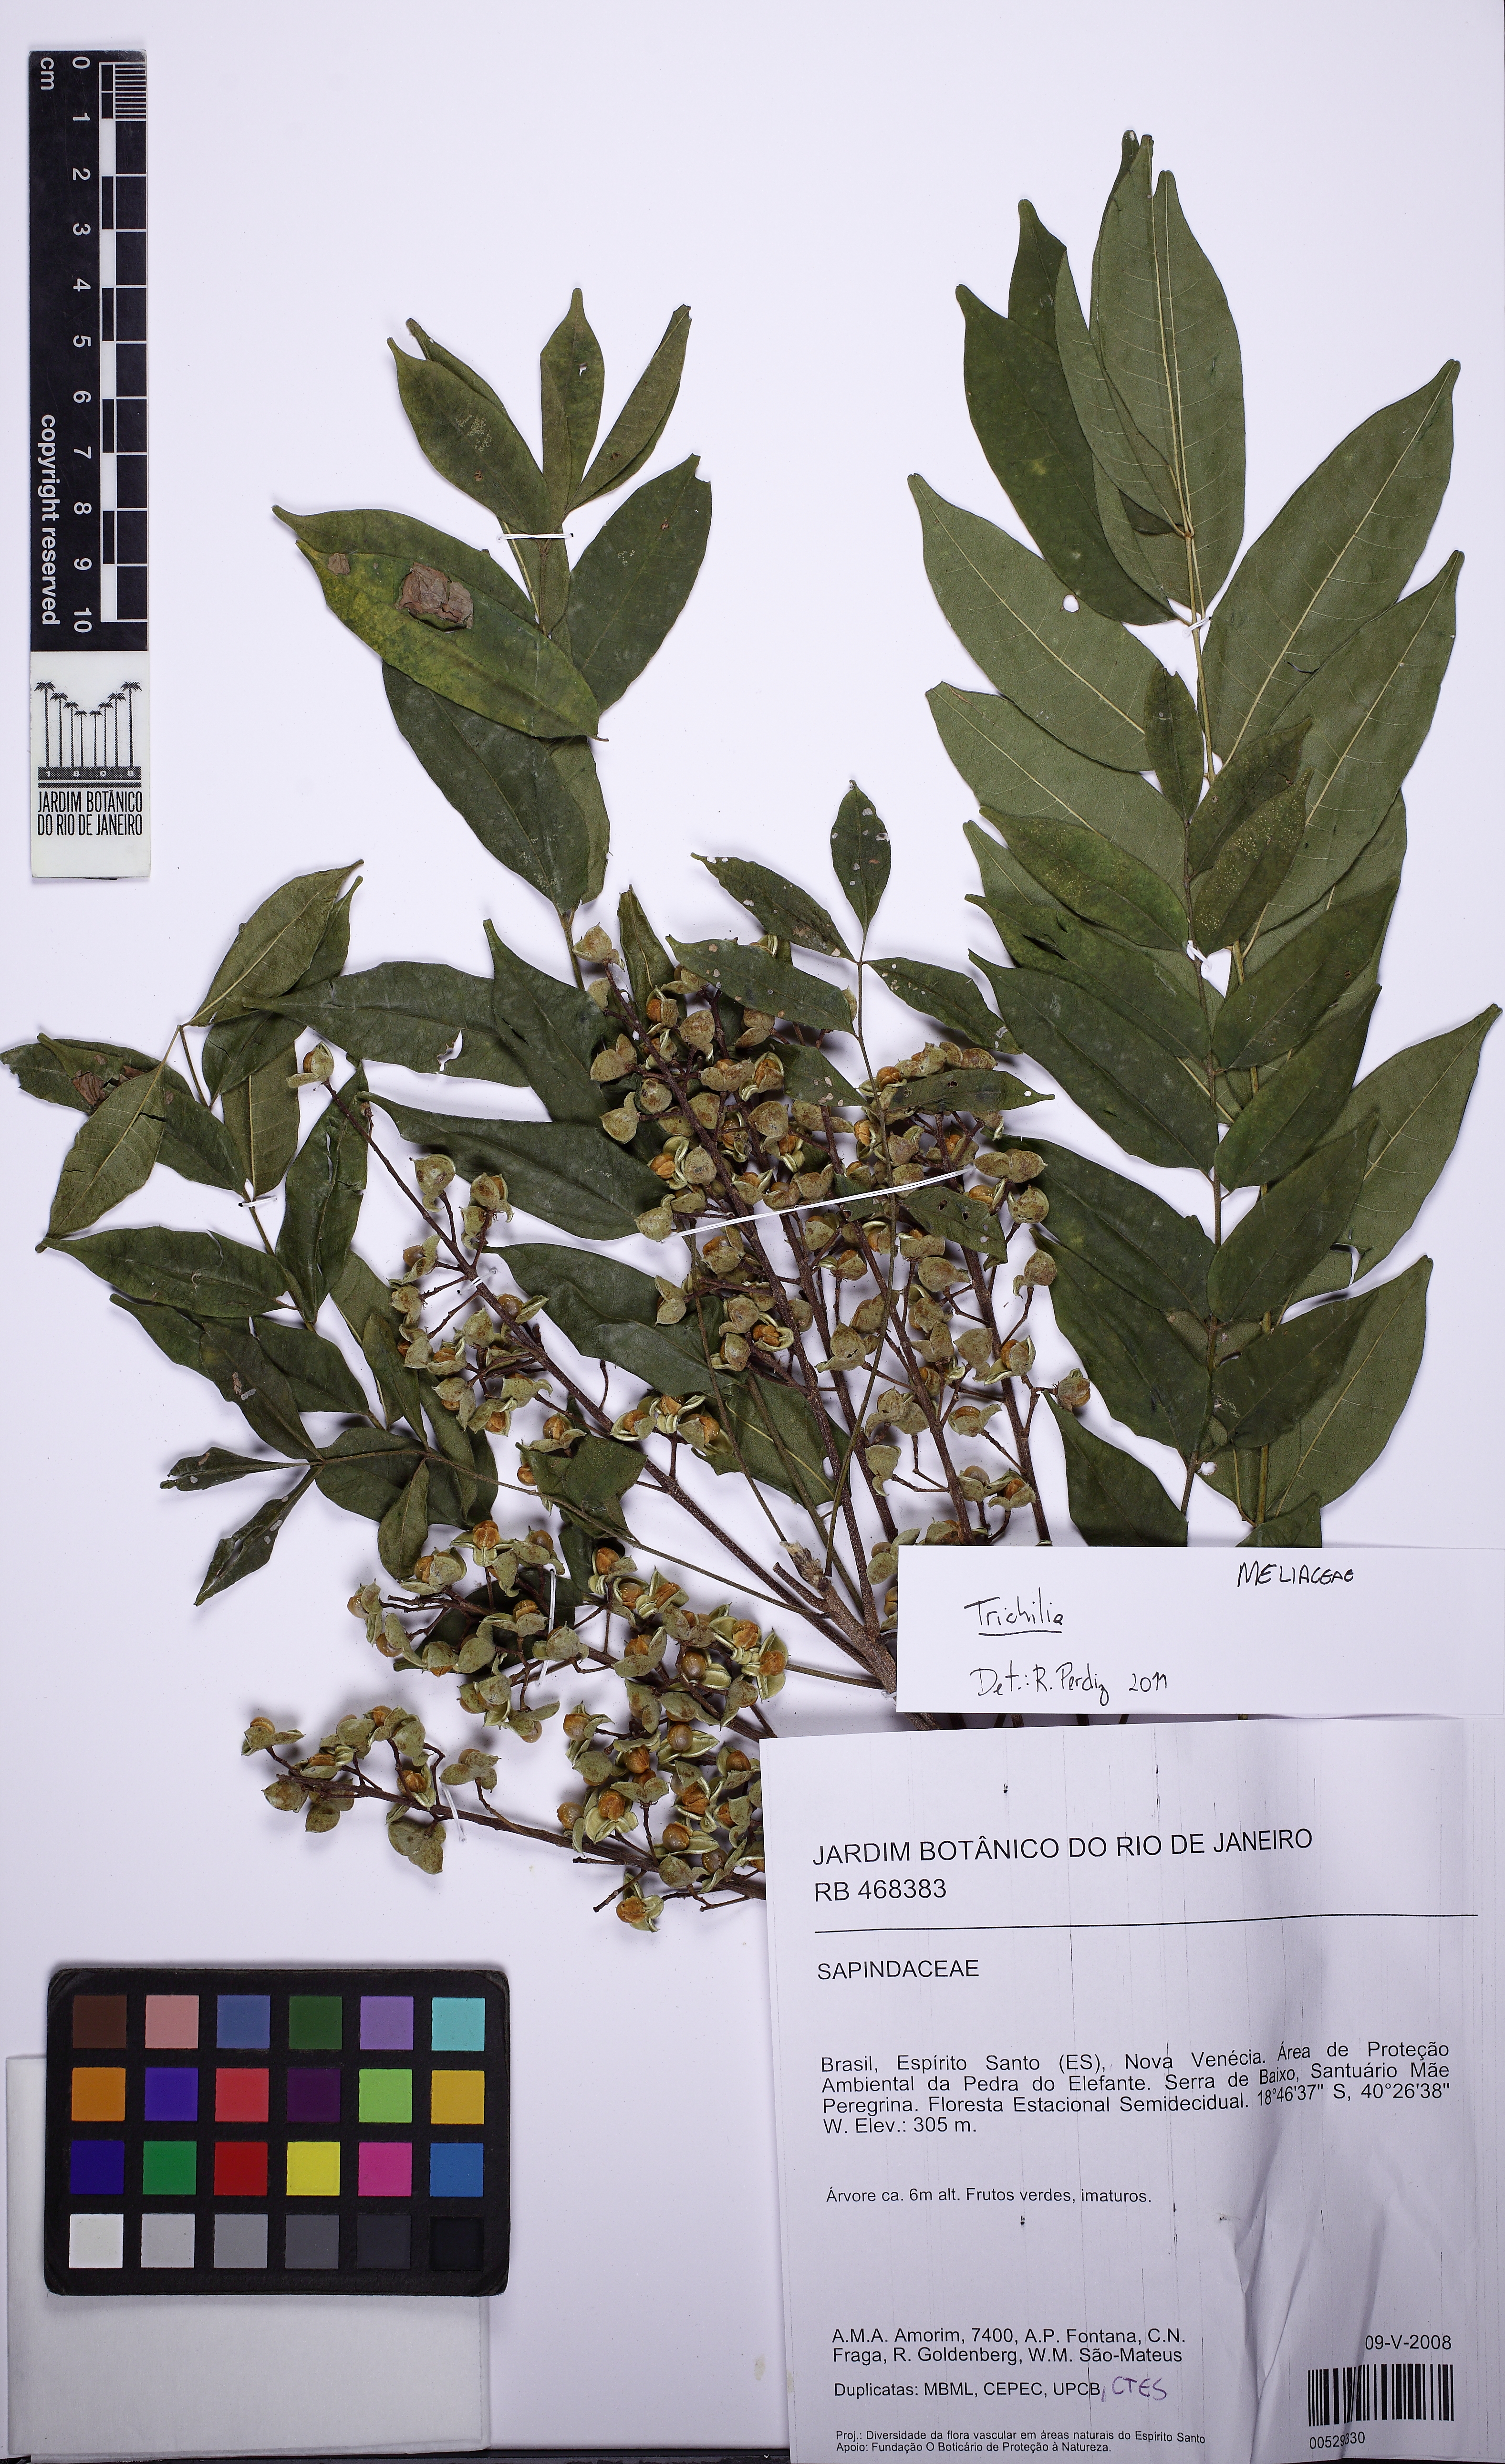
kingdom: Plantae
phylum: Tracheophyta
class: Magnoliopsida
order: Sapindales
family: Meliaceae
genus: Trichilia
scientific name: Trichilia hirta
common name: Red-cedar
